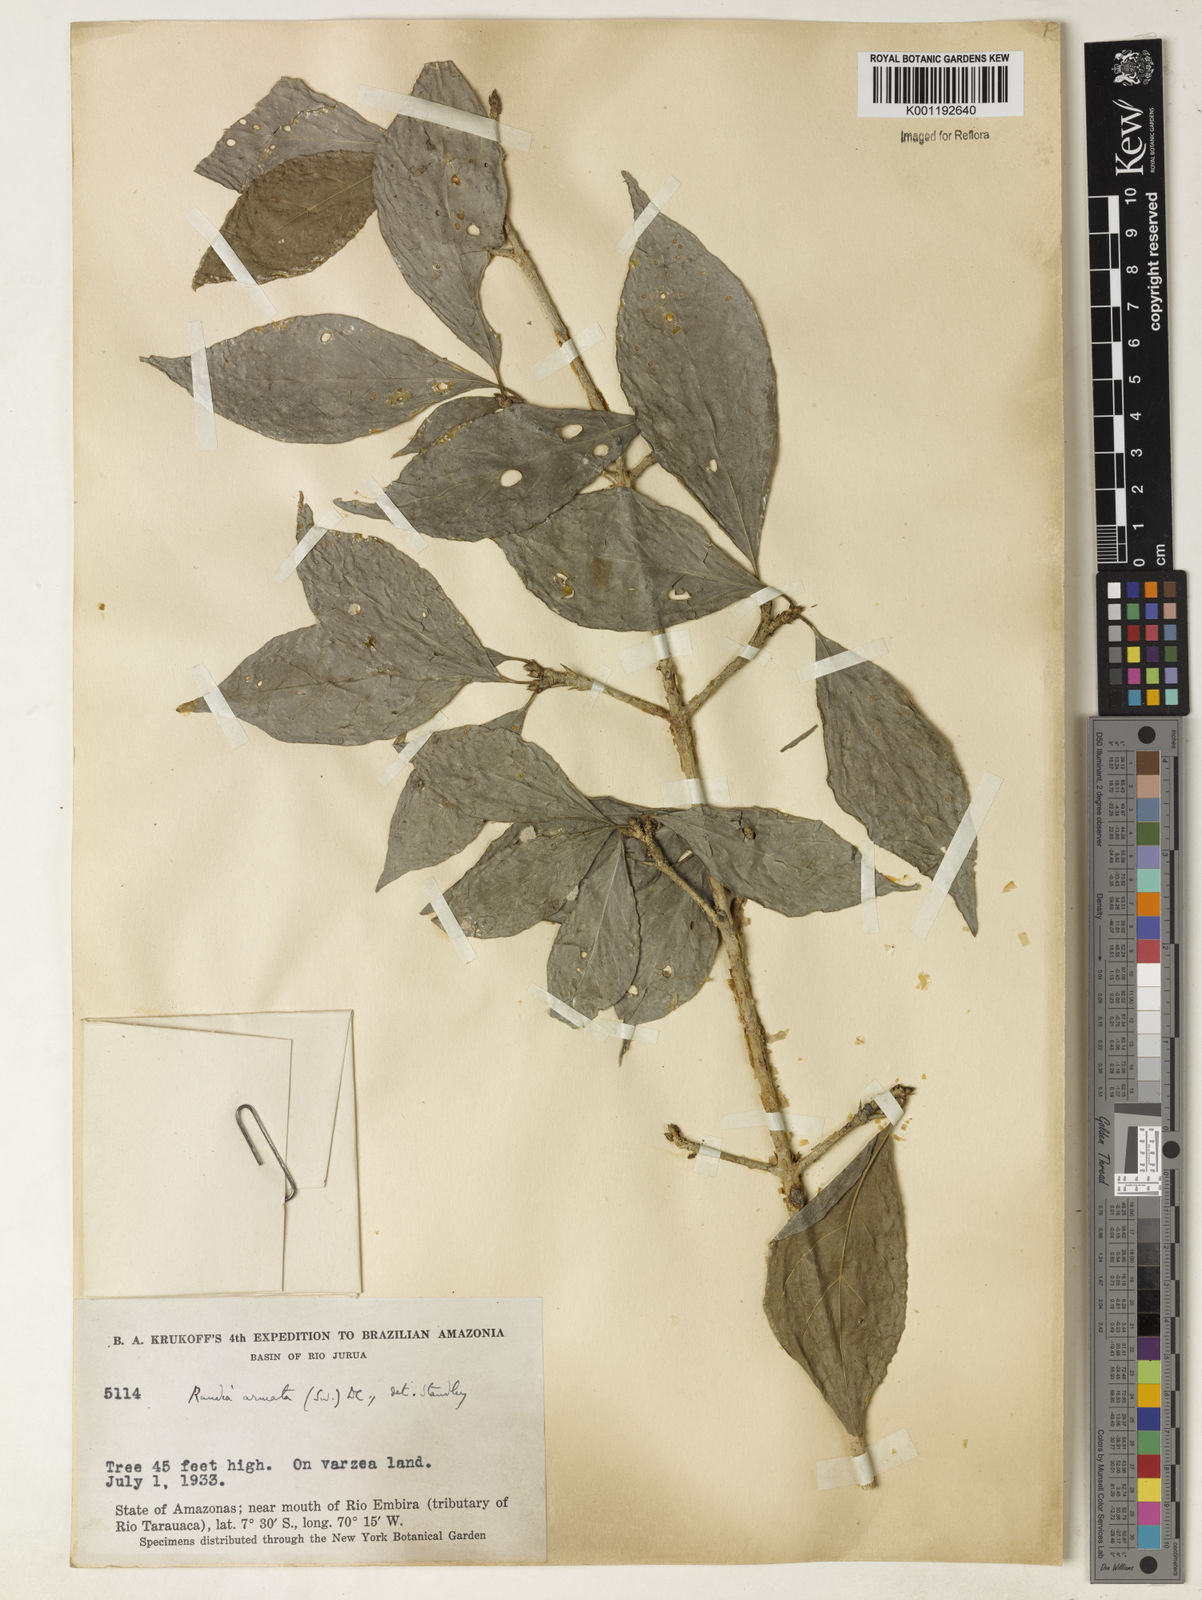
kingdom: Plantae
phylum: Tracheophyta
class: Magnoliopsida
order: Gentianales
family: Rubiaceae
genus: Randia
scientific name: Randia armata
